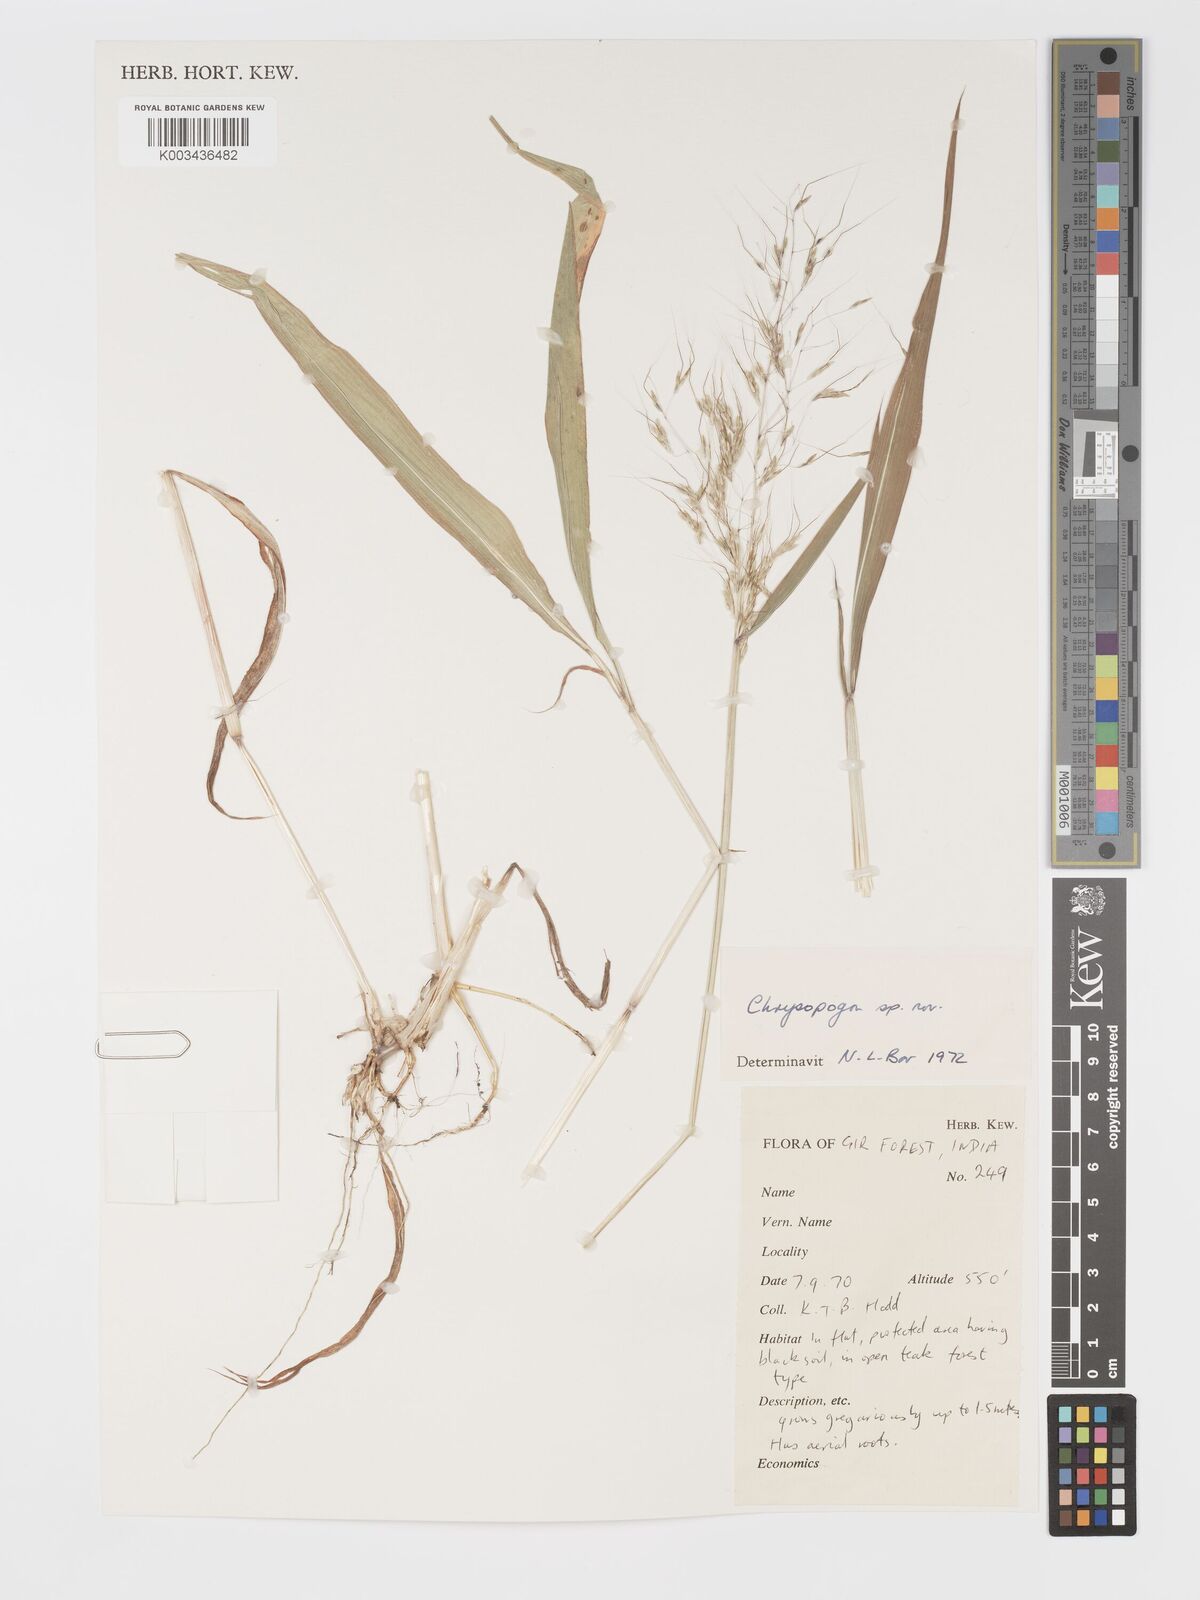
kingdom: Plantae
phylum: Tracheophyta
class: Liliopsida
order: Poales
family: Poaceae
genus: Chrysopogon
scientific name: Chrysopogon
